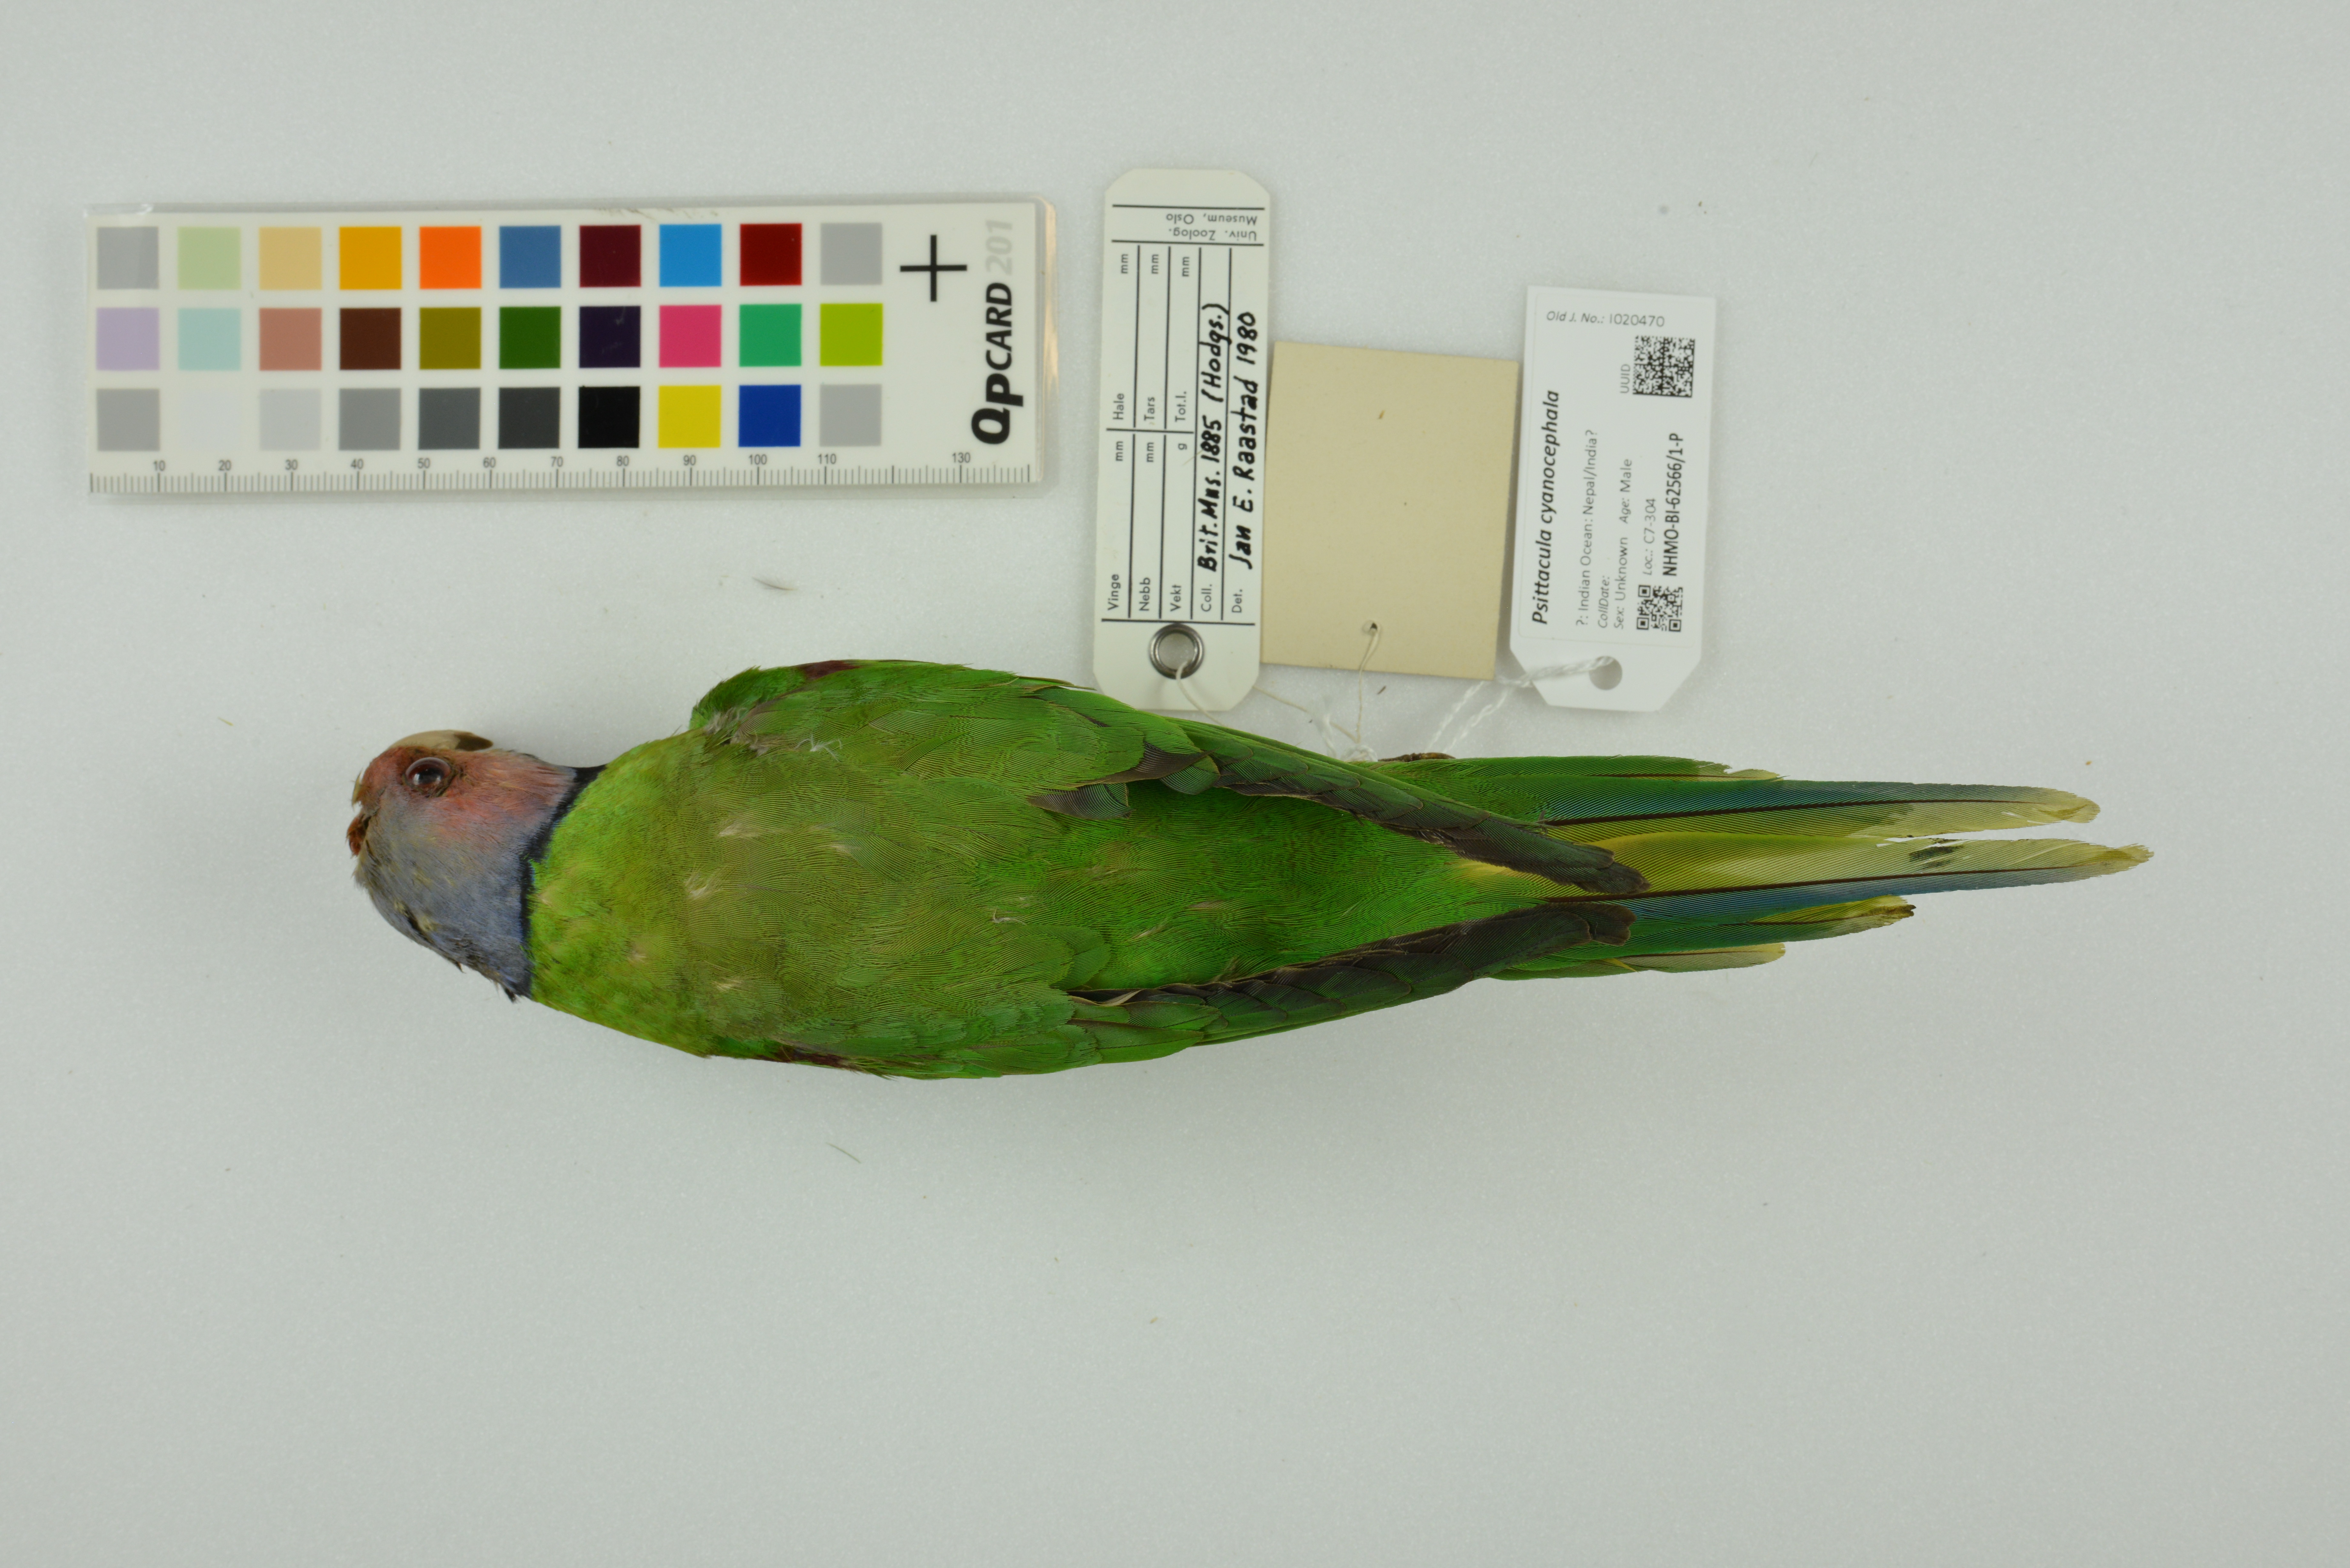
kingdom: Animalia
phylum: Chordata
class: Aves
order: Psittaciformes
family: Psittacidae
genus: Psittacula
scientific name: Psittacula cyanocephala
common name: Plum-headed parakeet
